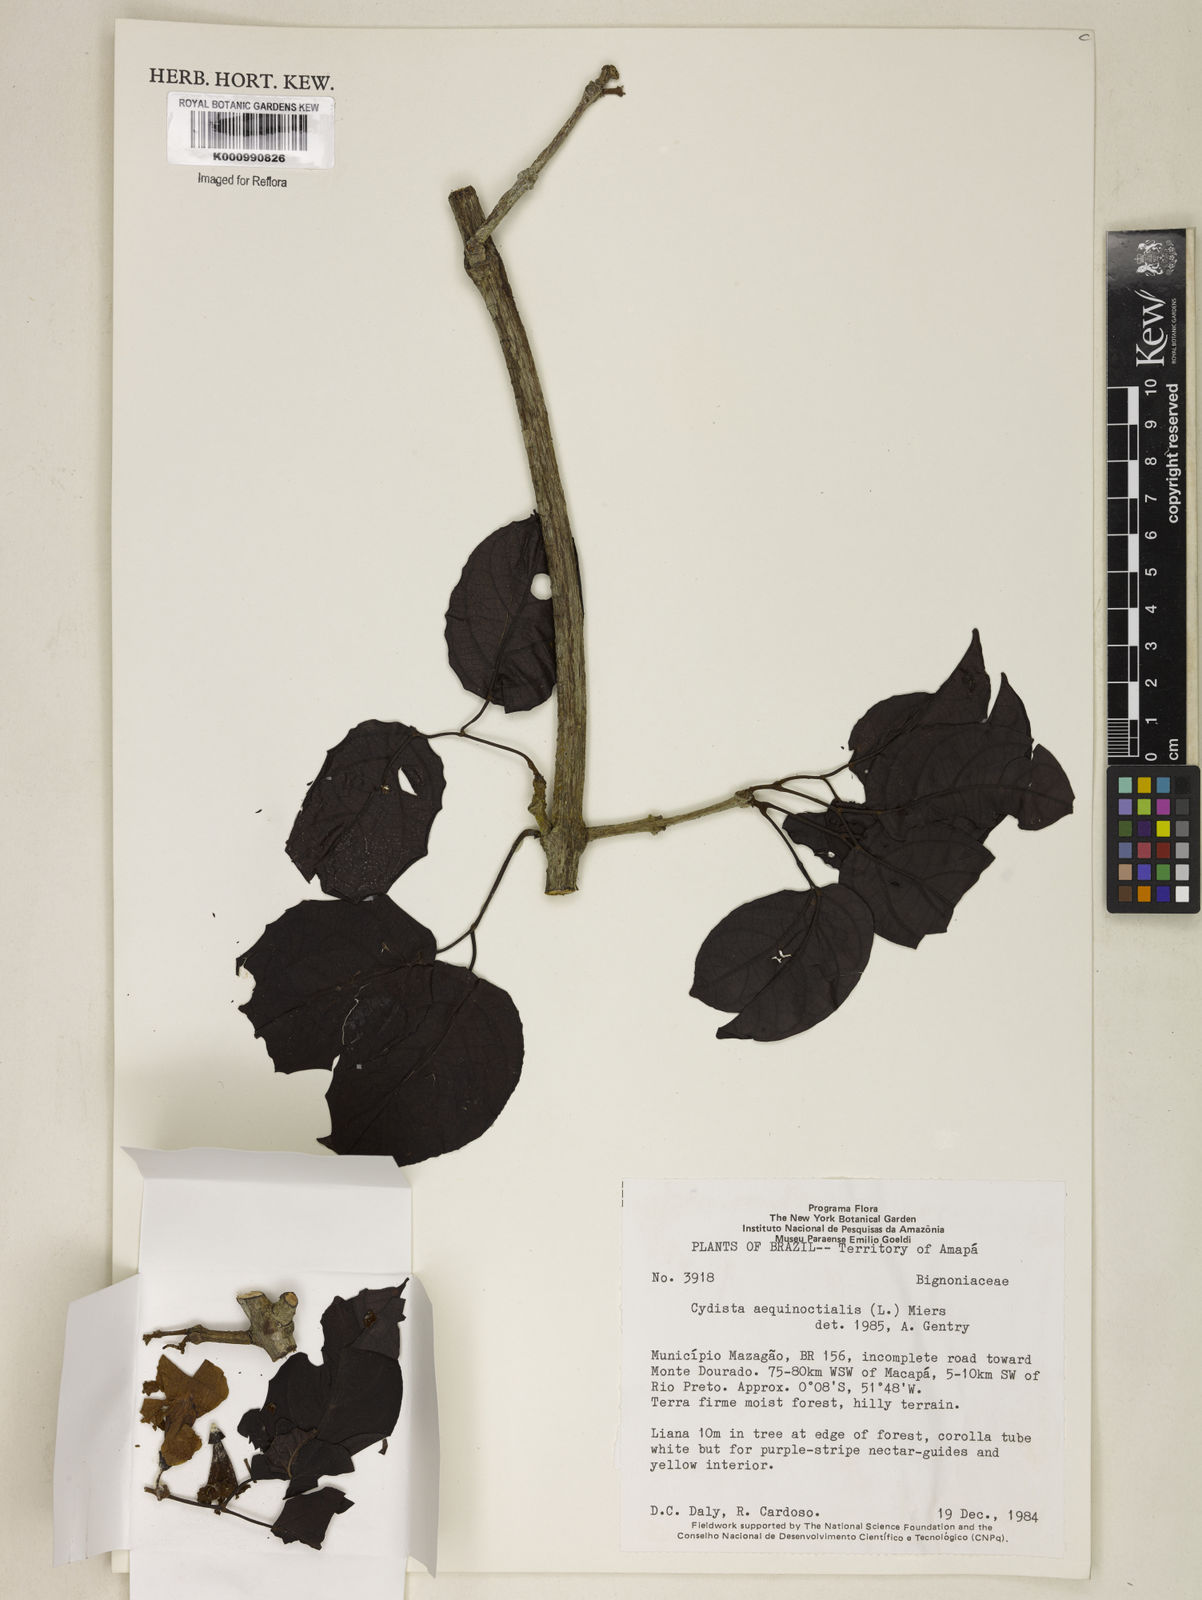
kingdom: Plantae
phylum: Tracheophyta
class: Magnoliopsida
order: Lamiales
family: Bignoniaceae
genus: Bignonia
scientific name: Bignonia aequinoctialis
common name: Garlicvine
